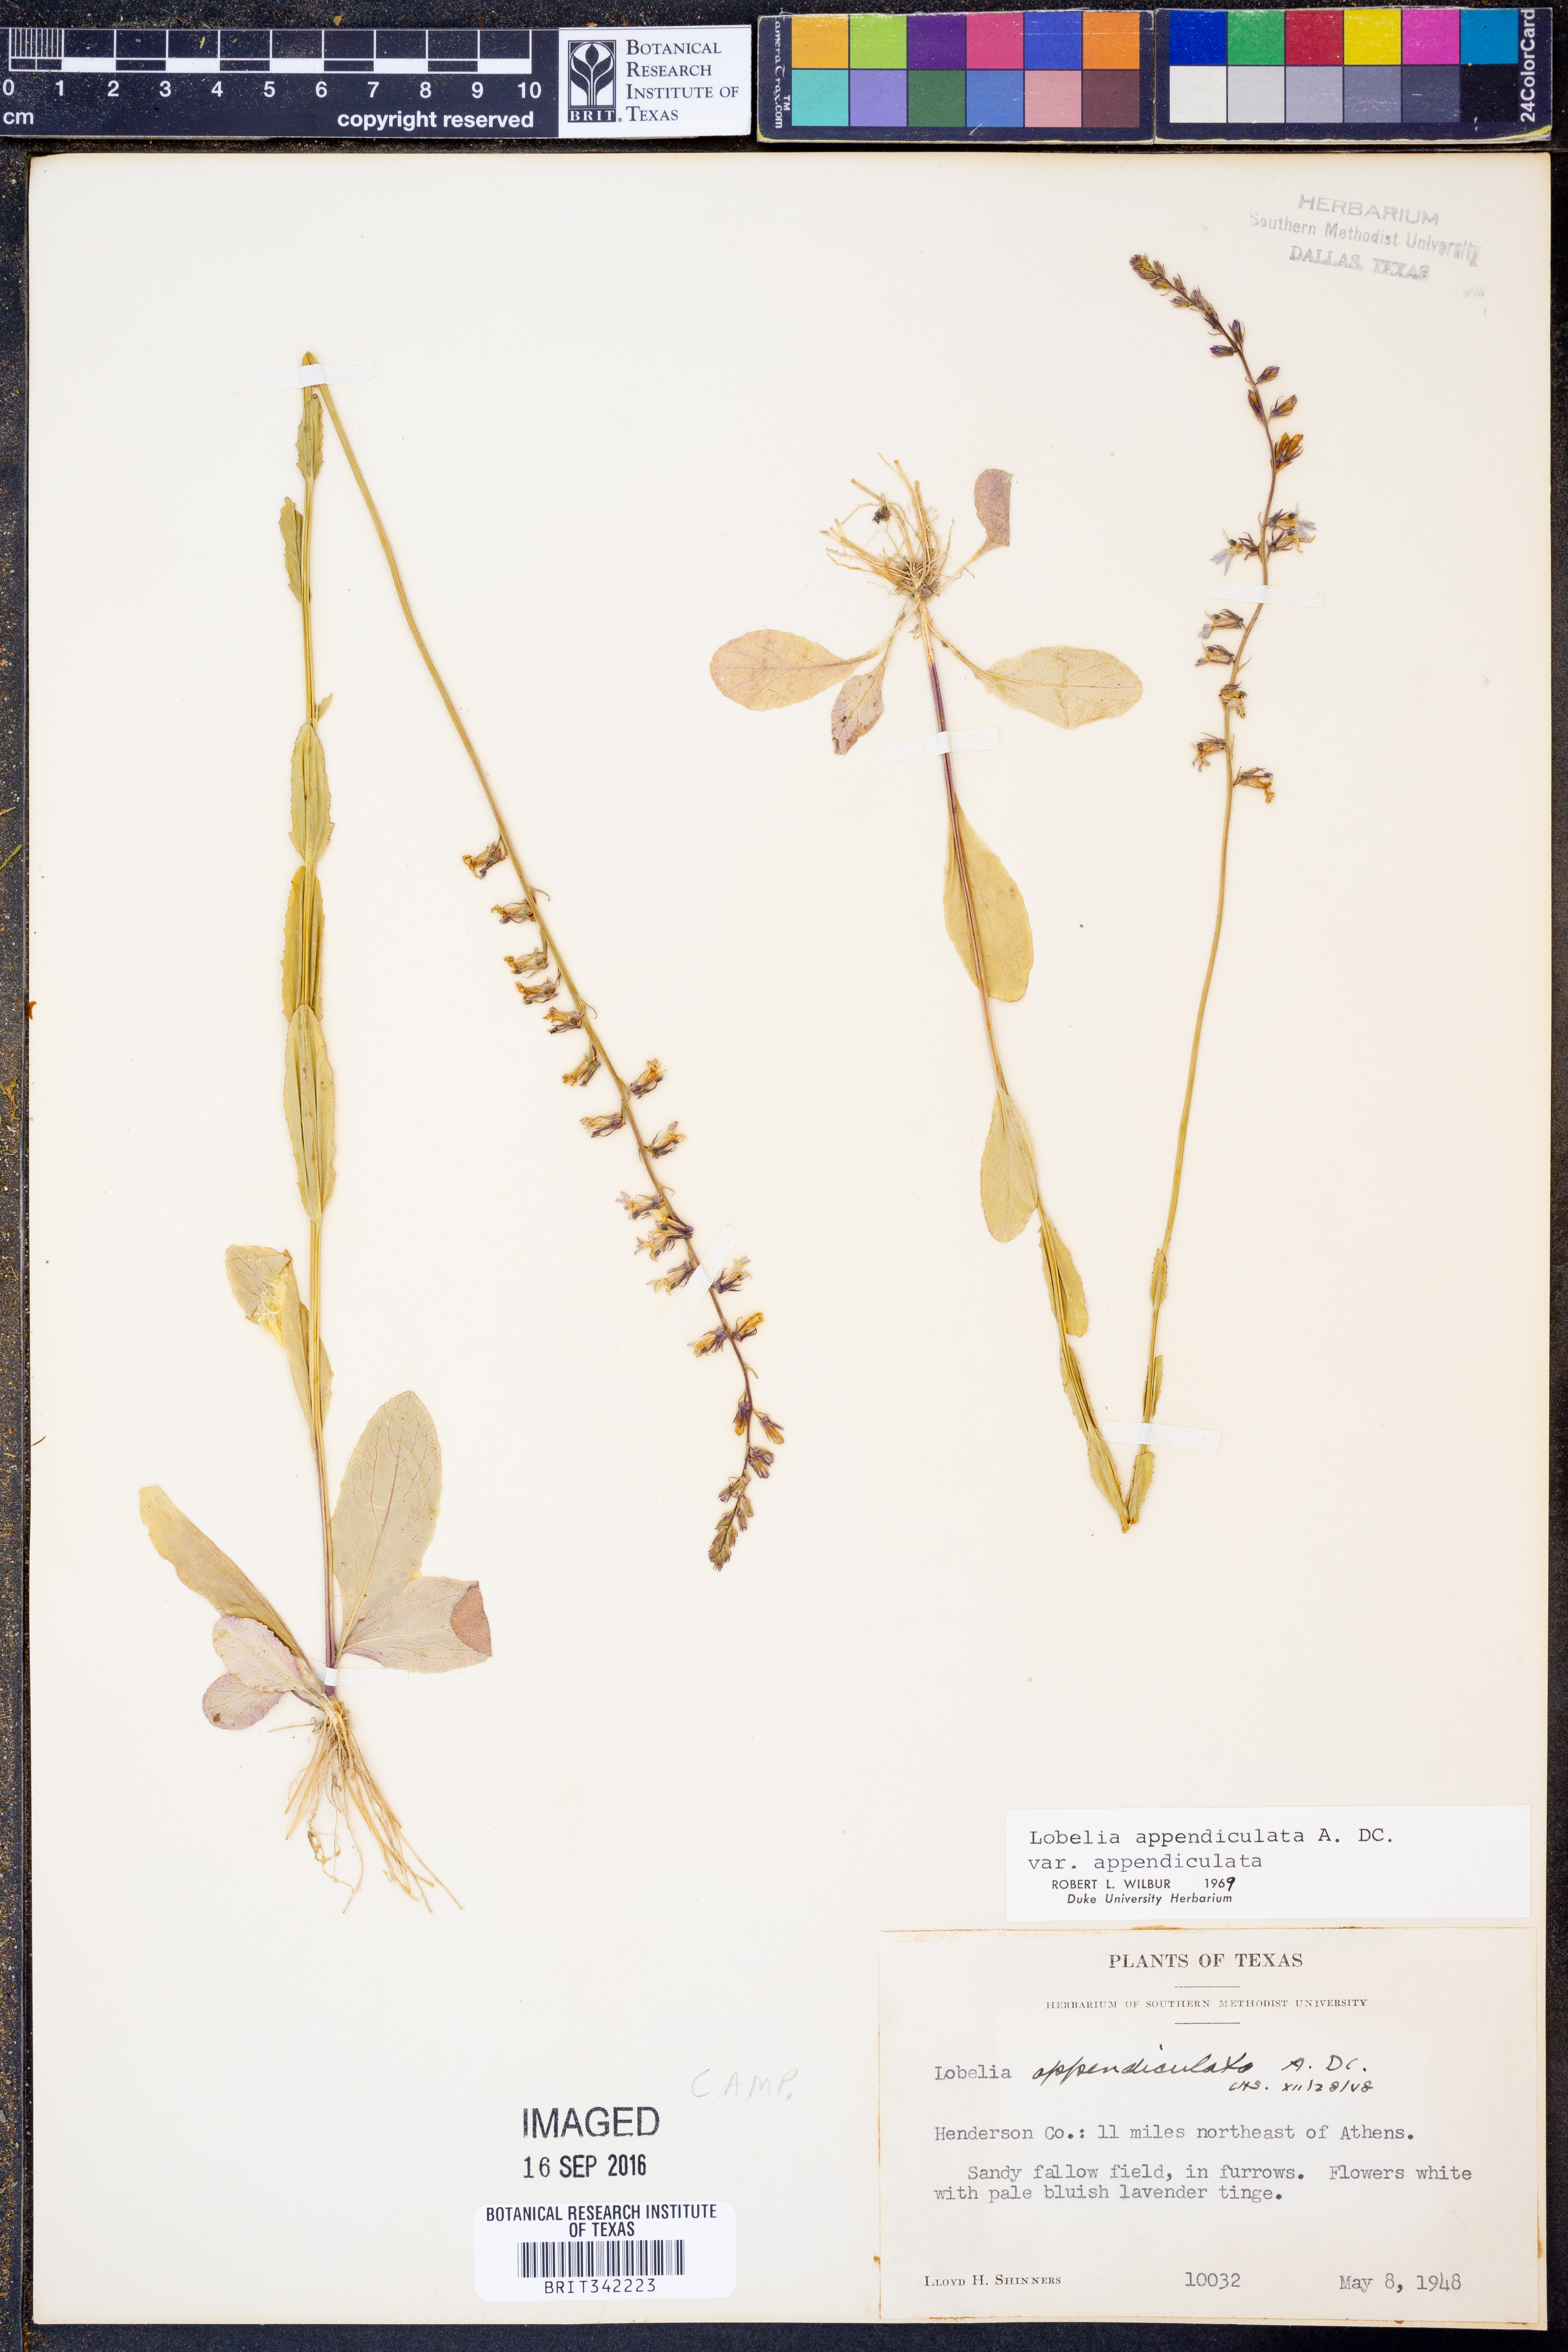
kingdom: Plantae
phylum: Tracheophyta
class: Magnoliopsida
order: Asterales
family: Campanulaceae
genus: Lobelia
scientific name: Lobelia appendiculata
